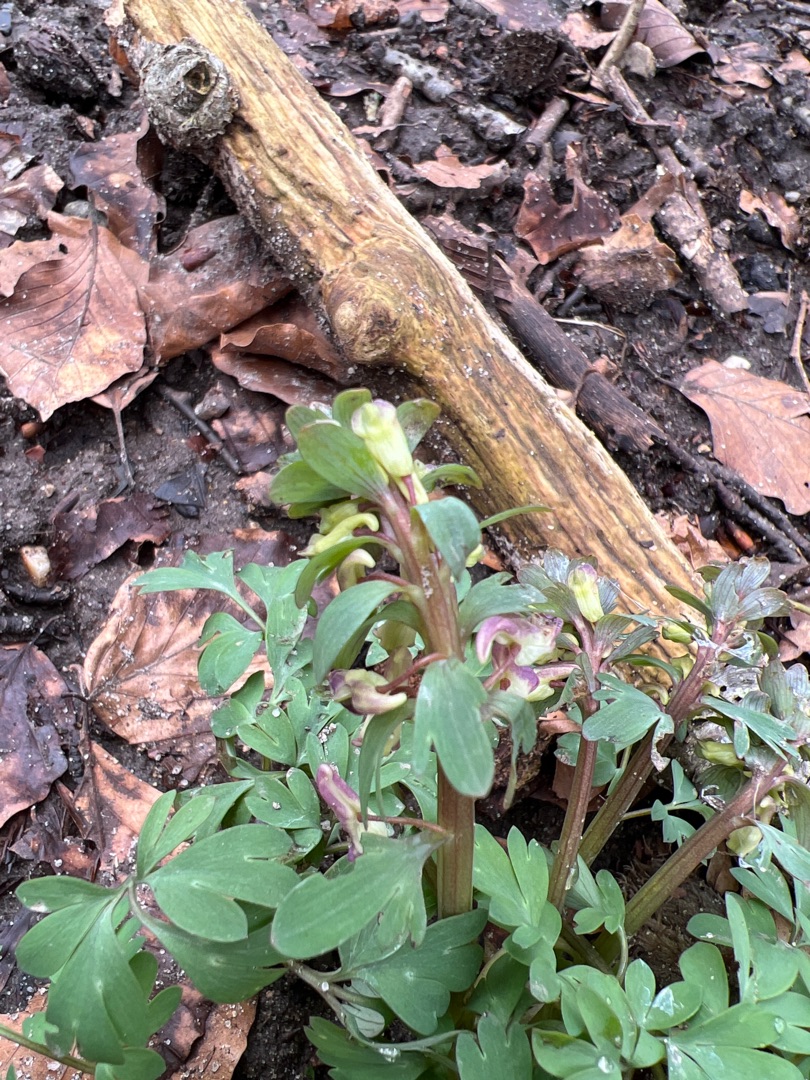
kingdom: Plantae
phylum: Tracheophyta
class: Magnoliopsida
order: Ranunculales
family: Papaveraceae
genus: Corydalis
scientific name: Corydalis solida
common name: Langstilket lærkespore
